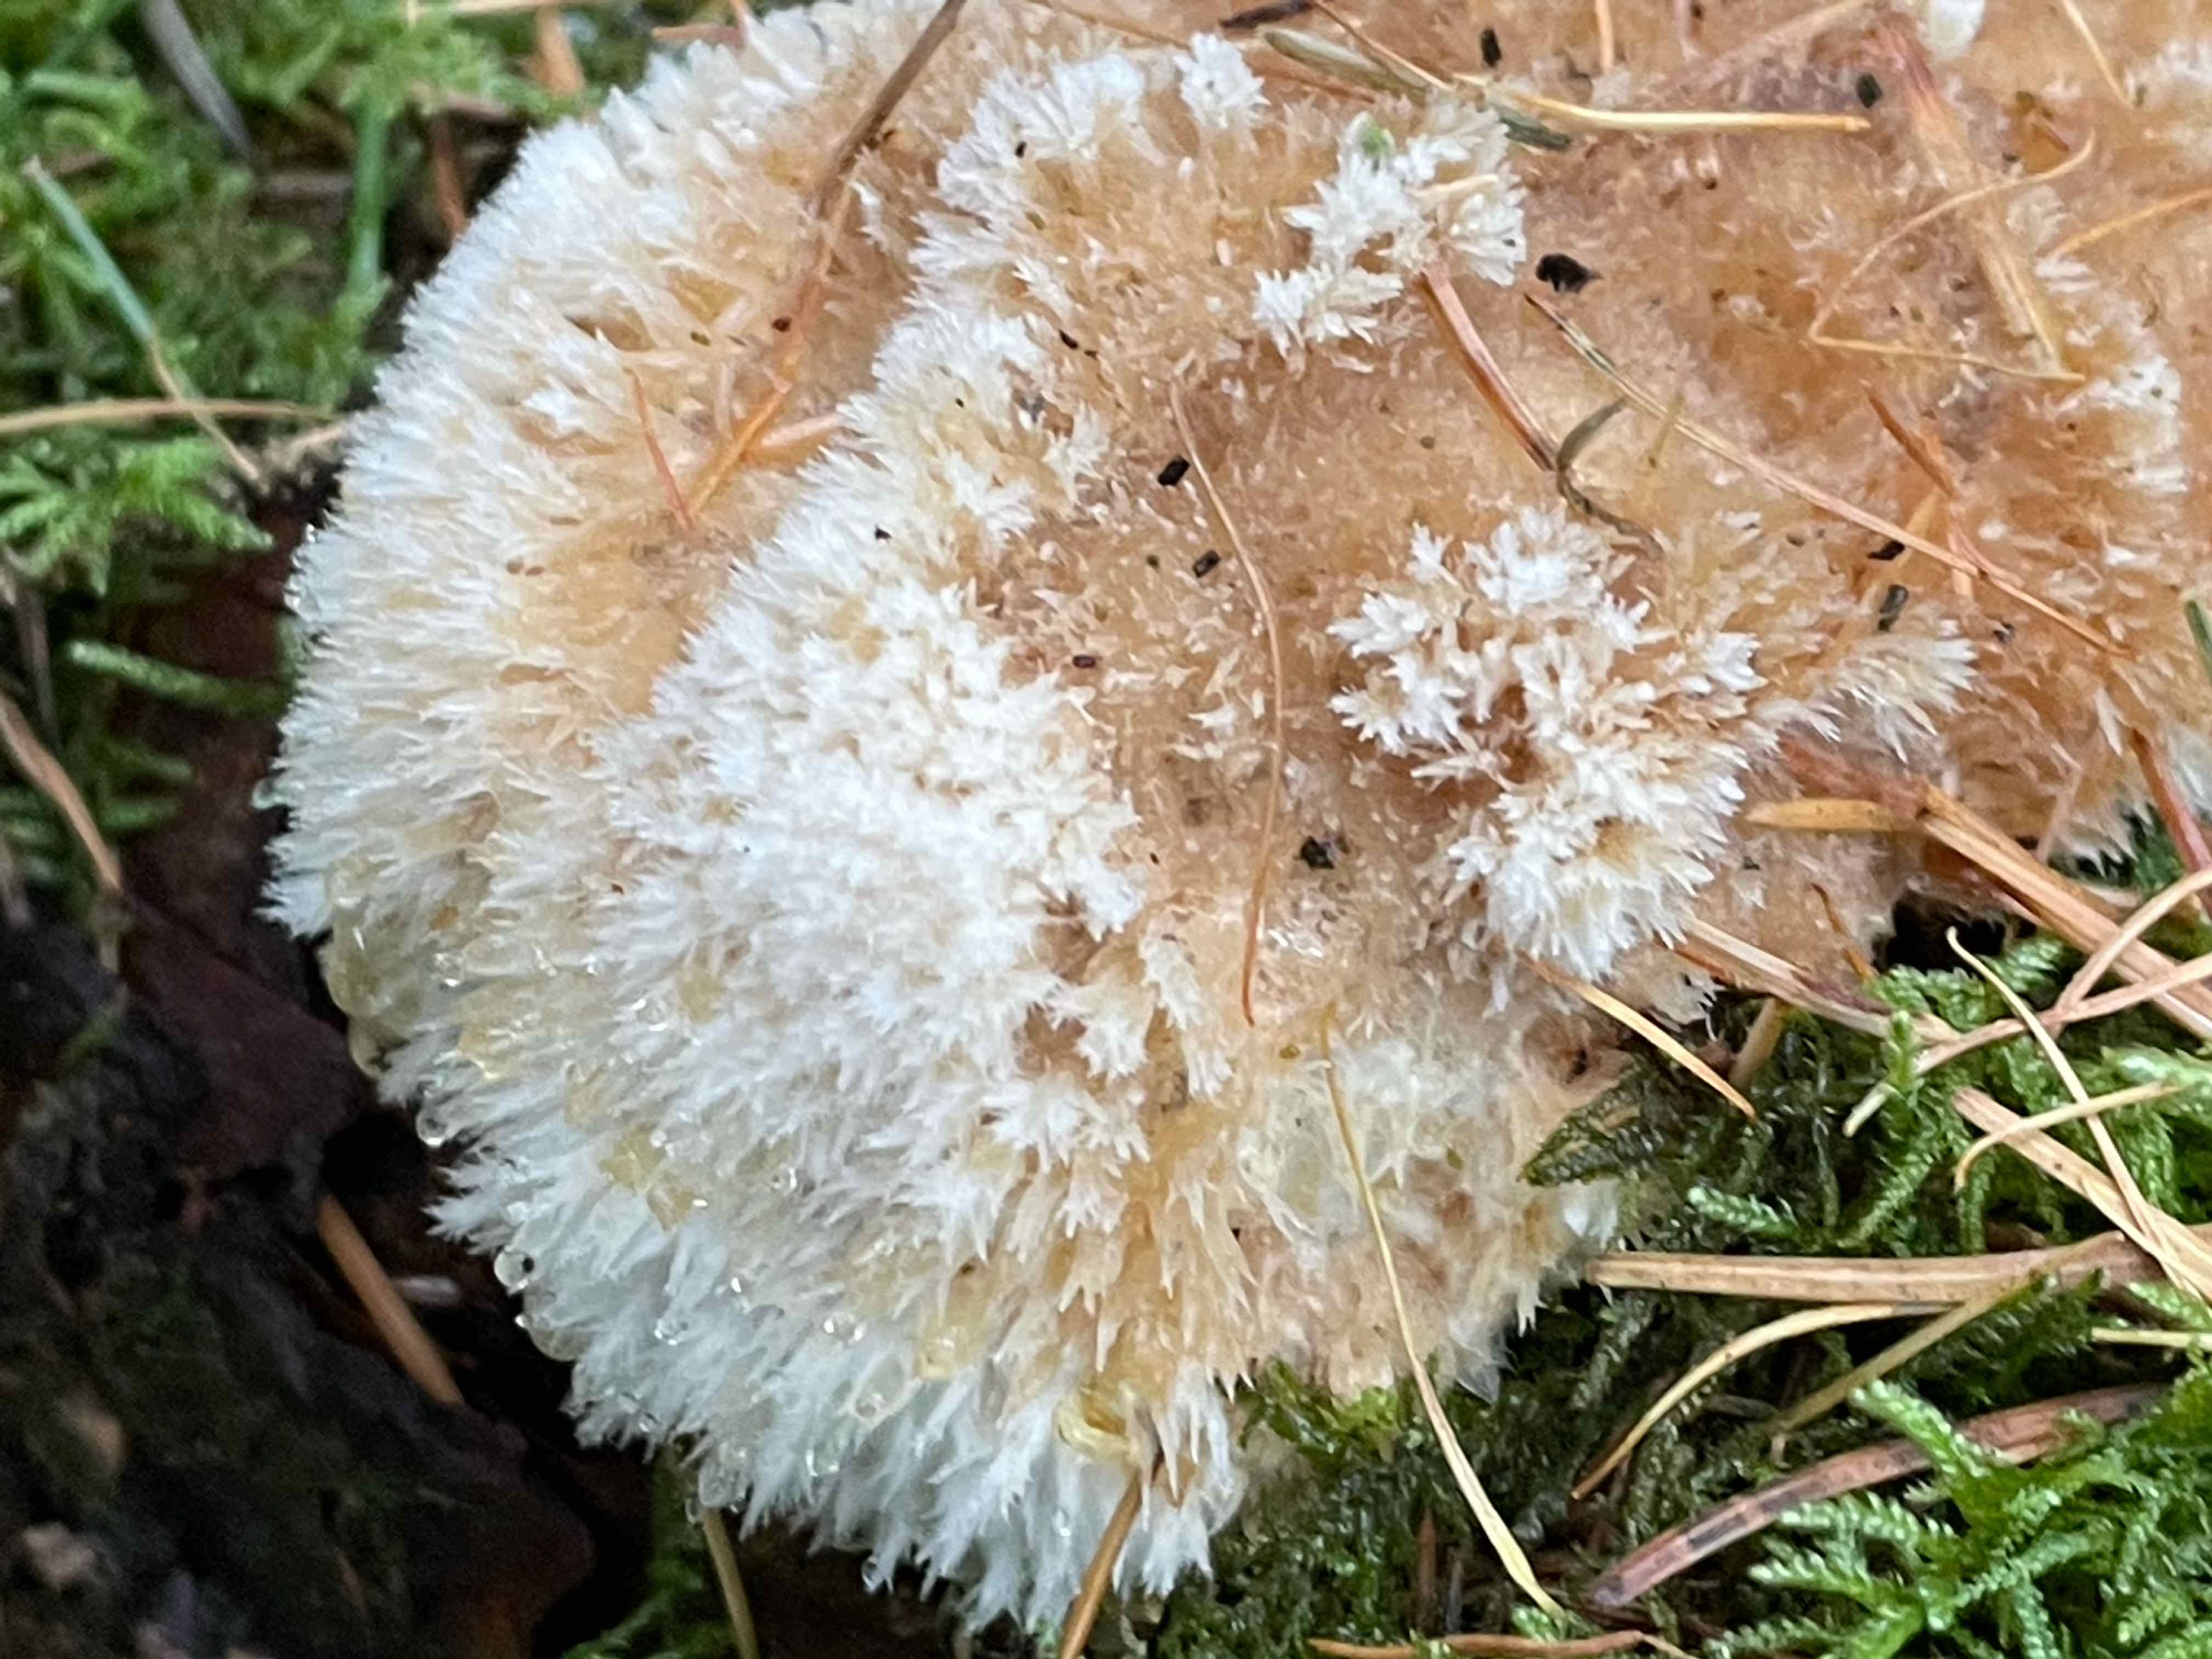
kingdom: Fungi
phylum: Basidiomycota
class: Agaricomycetes
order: Polyporales
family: Dacryobolaceae
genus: Postia
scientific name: Postia ptychogaster
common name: støvende kødporesvamp
